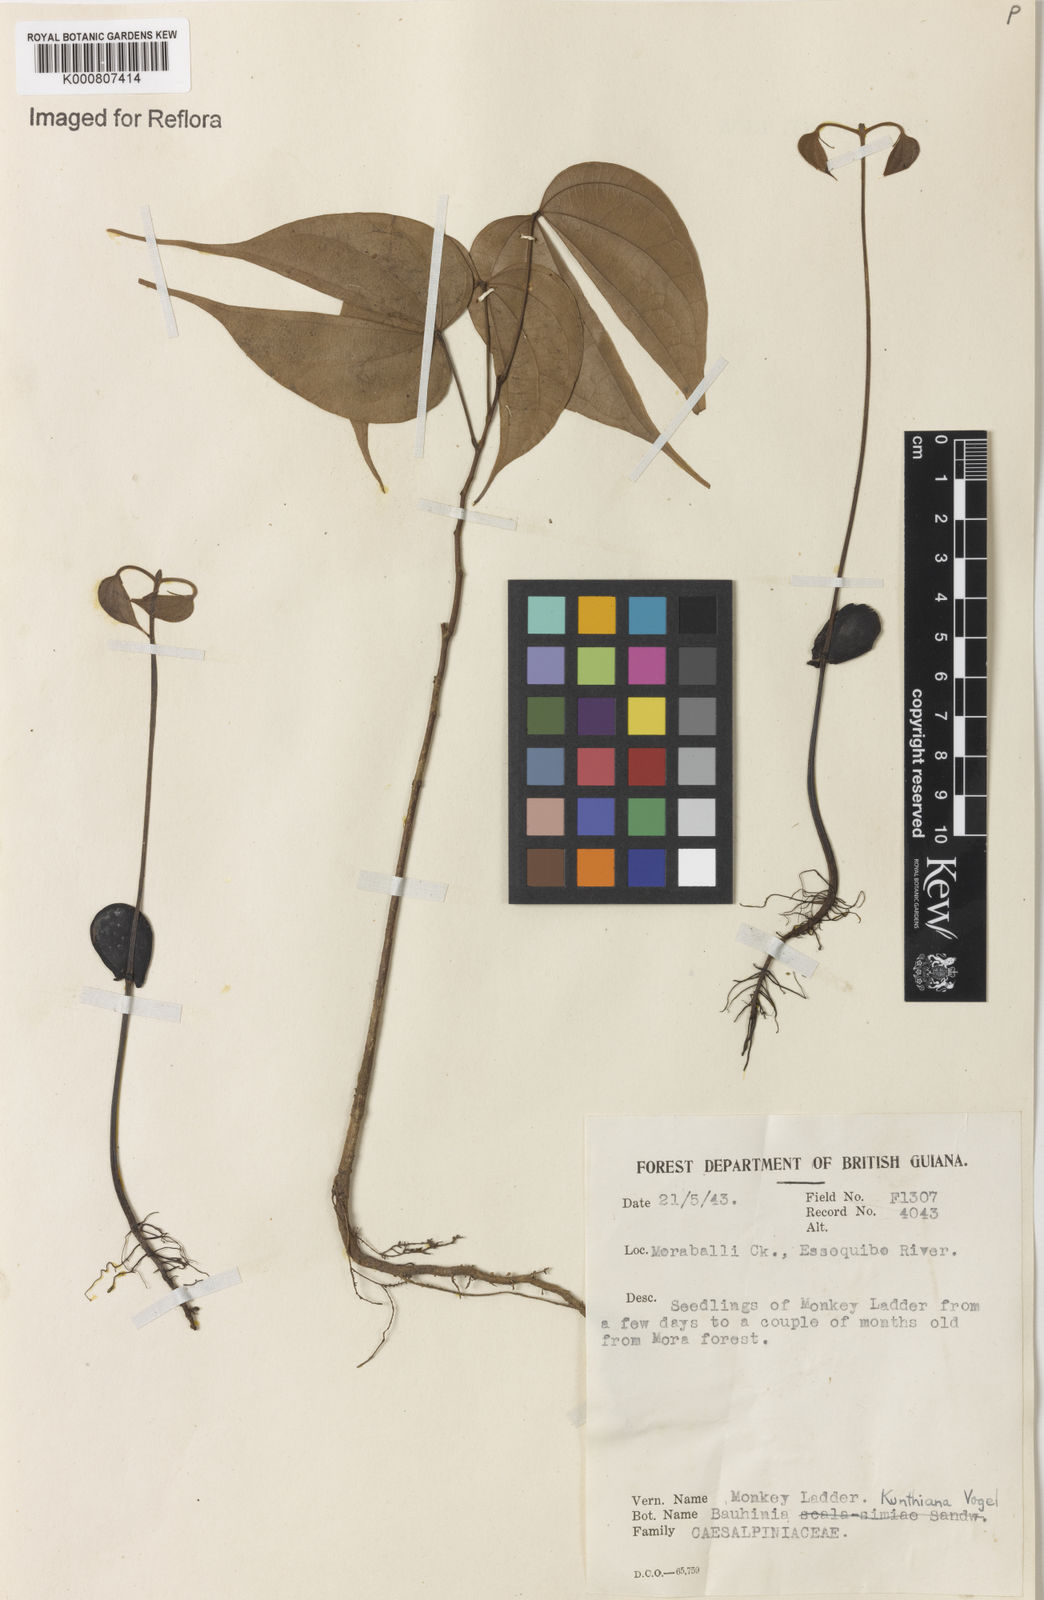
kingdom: Plantae
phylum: Tracheophyta
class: Magnoliopsida
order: Fabales
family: Fabaceae
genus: Schnella
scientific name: Schnella kunthiana
